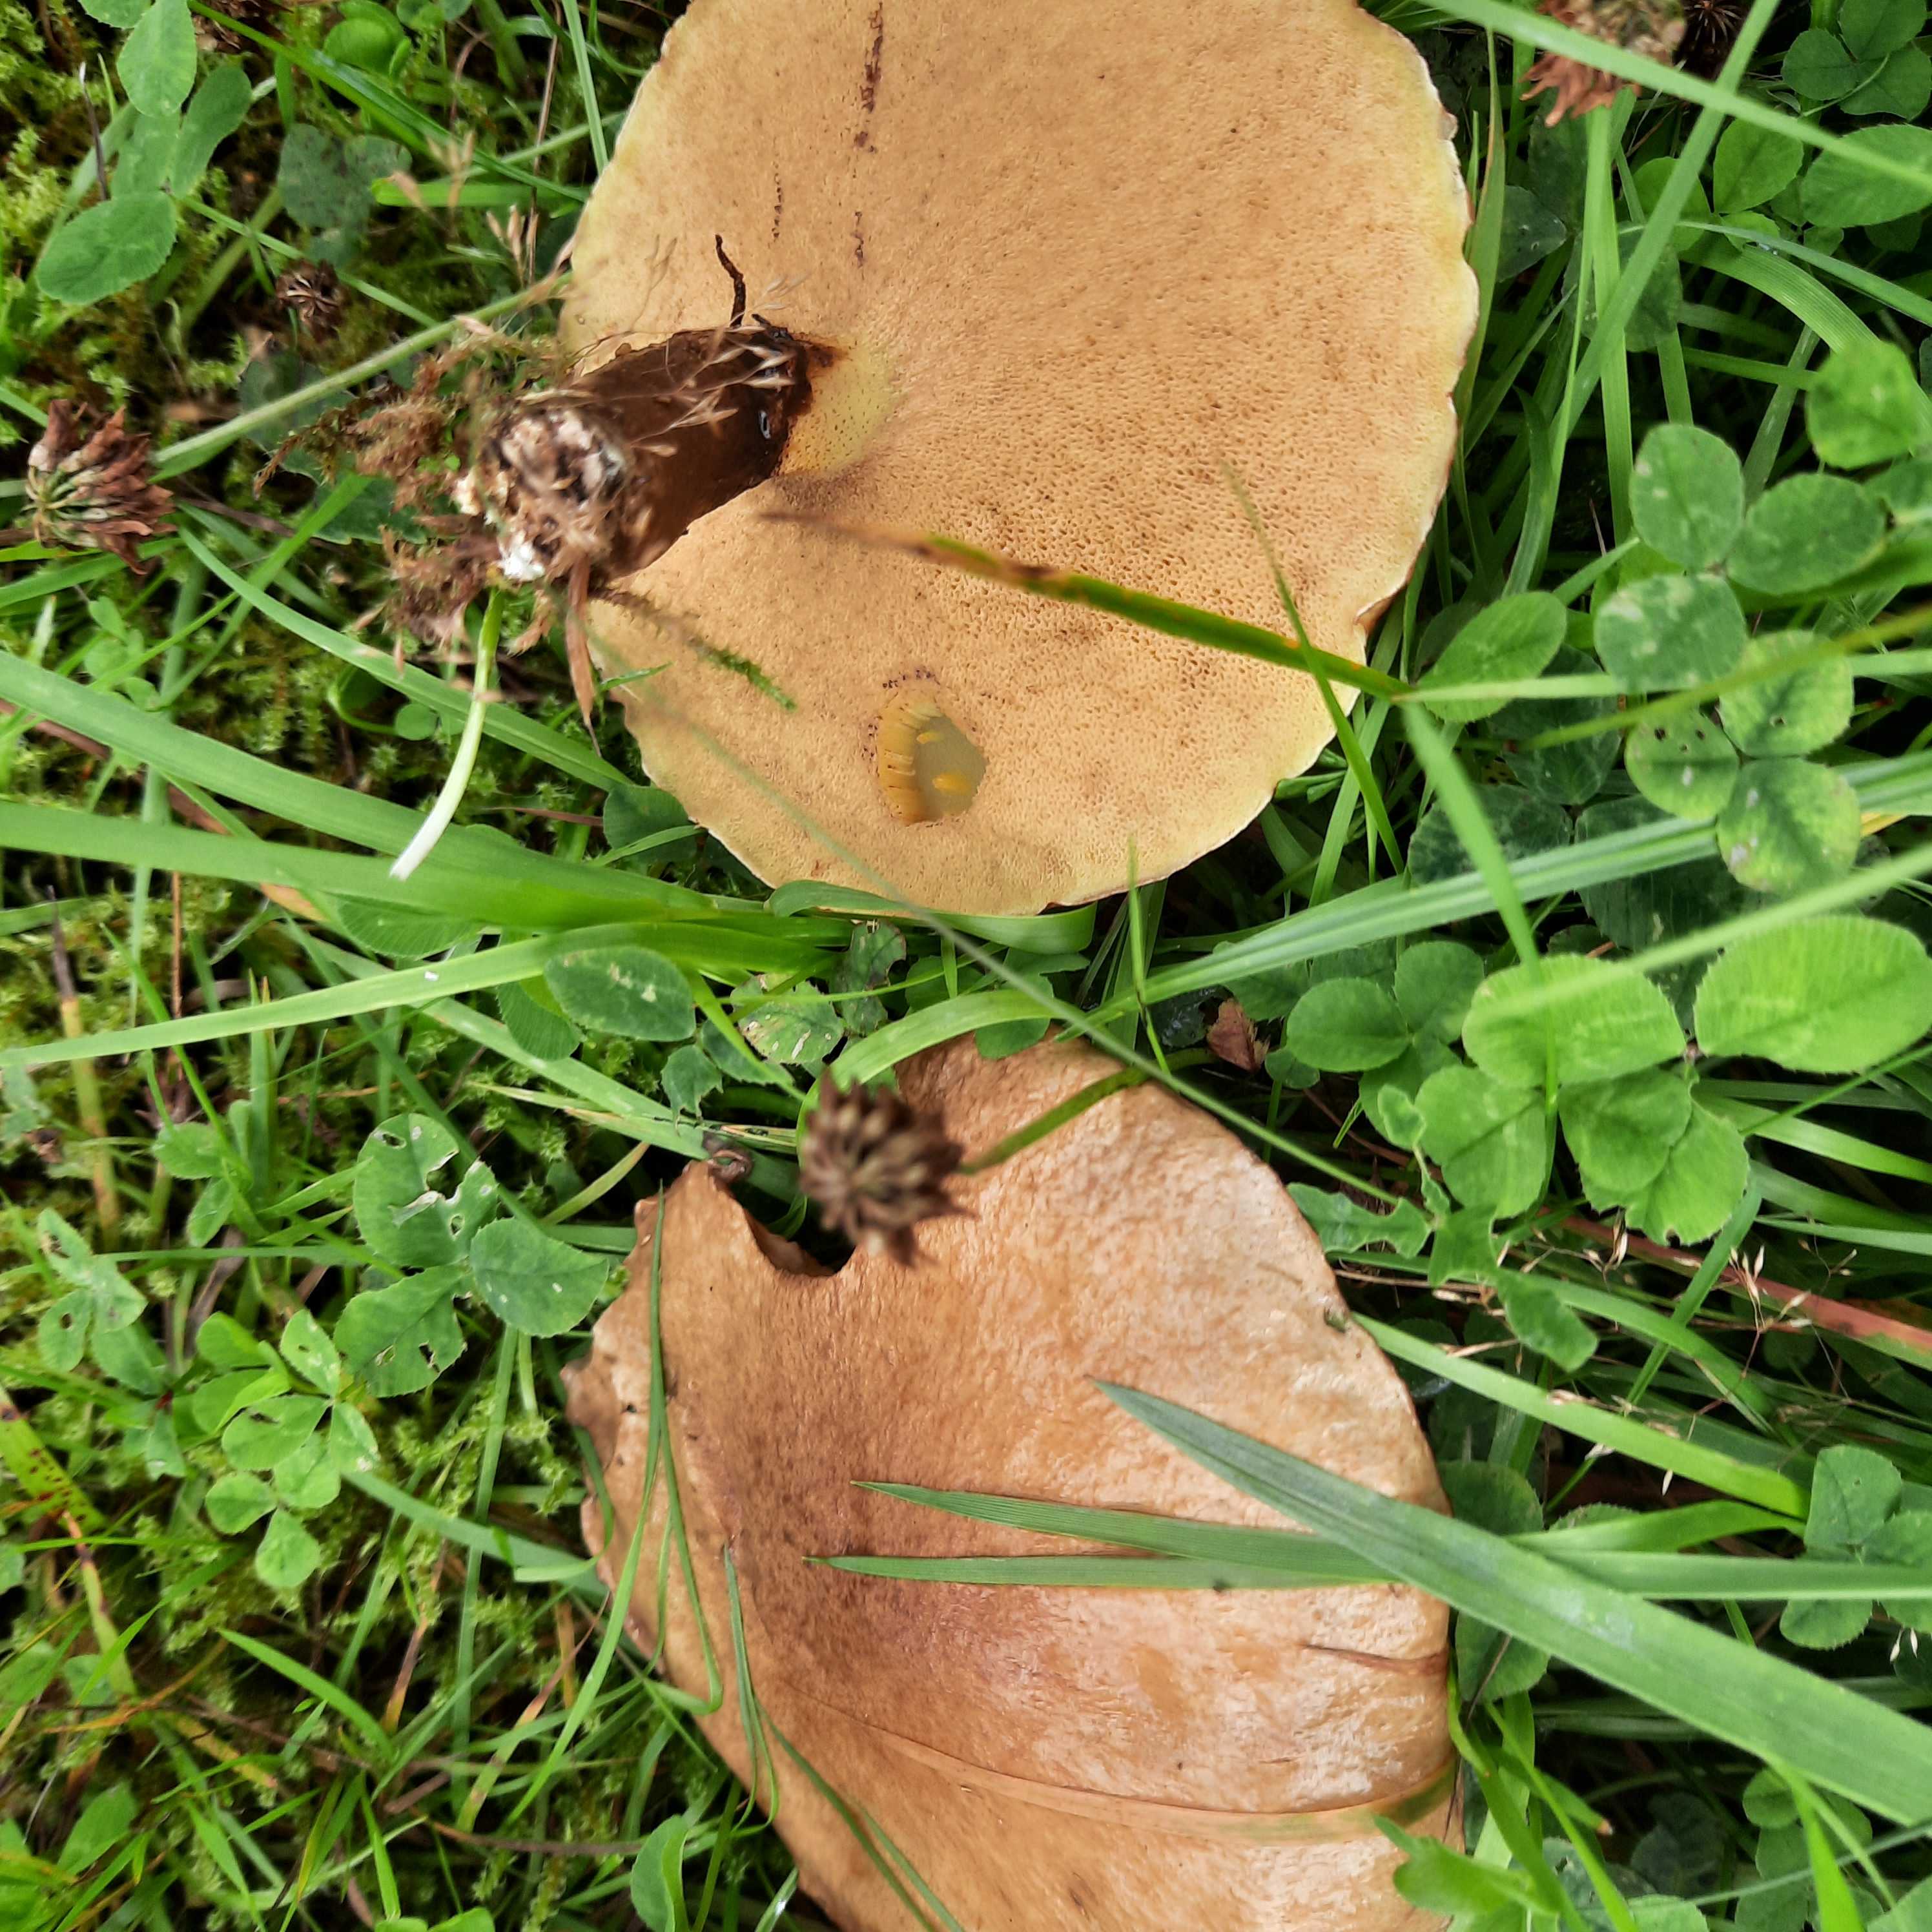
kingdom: Fungi
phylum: Basidiomycota
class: Agaricomycetes
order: Boletales
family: Suillaceae
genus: Suillus
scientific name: Suillus luteus
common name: brungul slimrørhat
